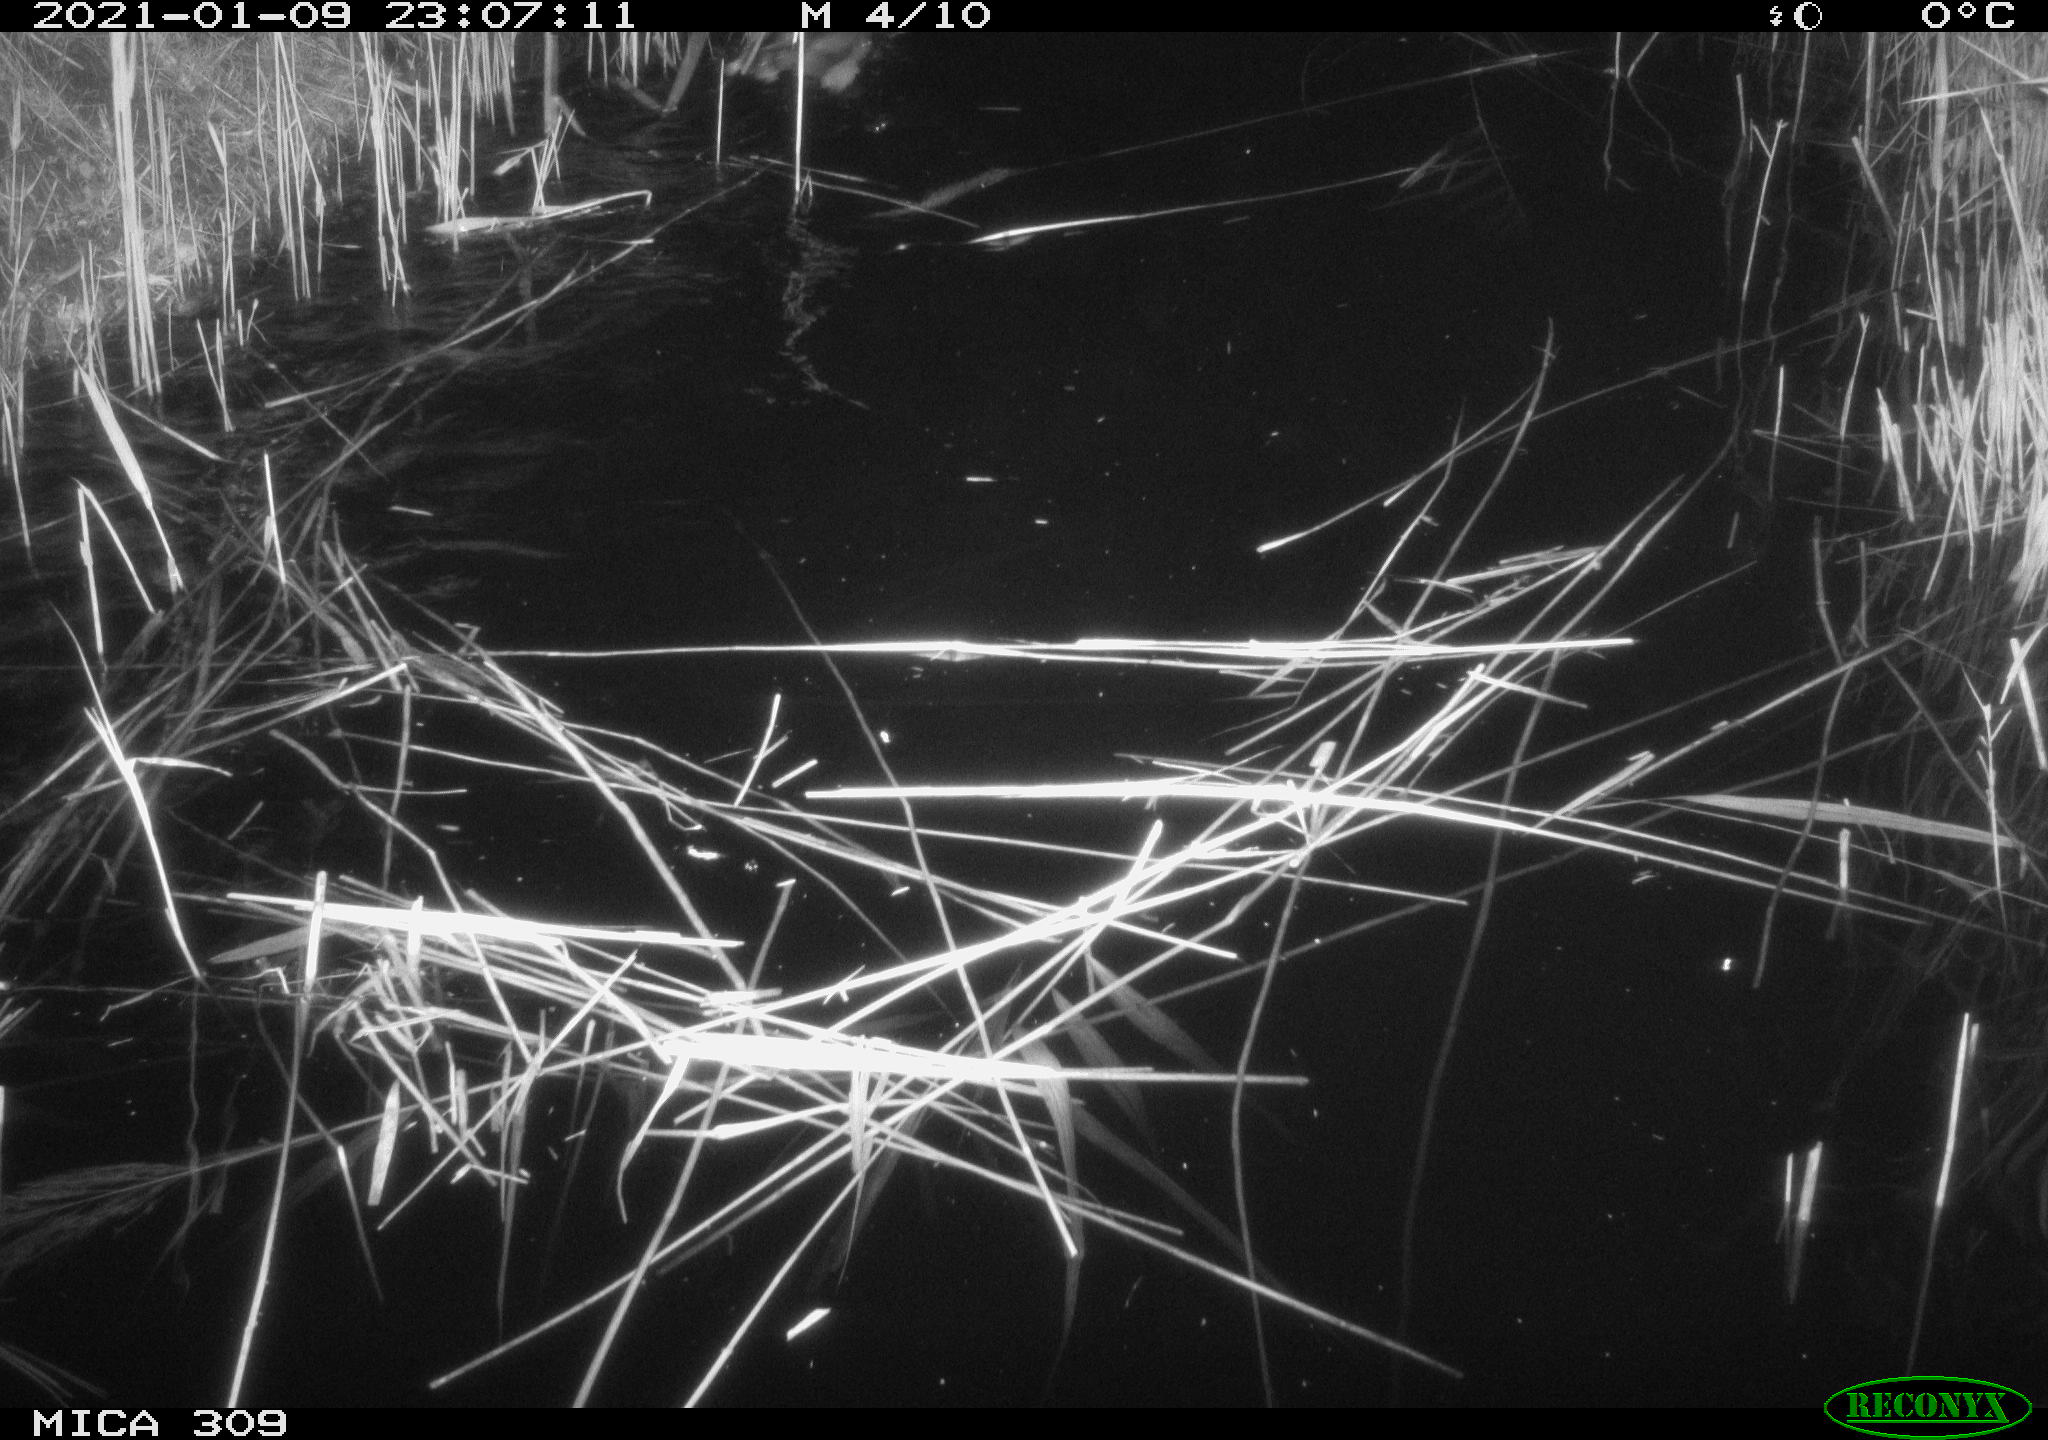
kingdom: Animalia
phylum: Chordata
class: Aves
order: Anseriformes
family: Anatidae
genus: Anas
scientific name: Anas platyrhynchos
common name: Mallard
